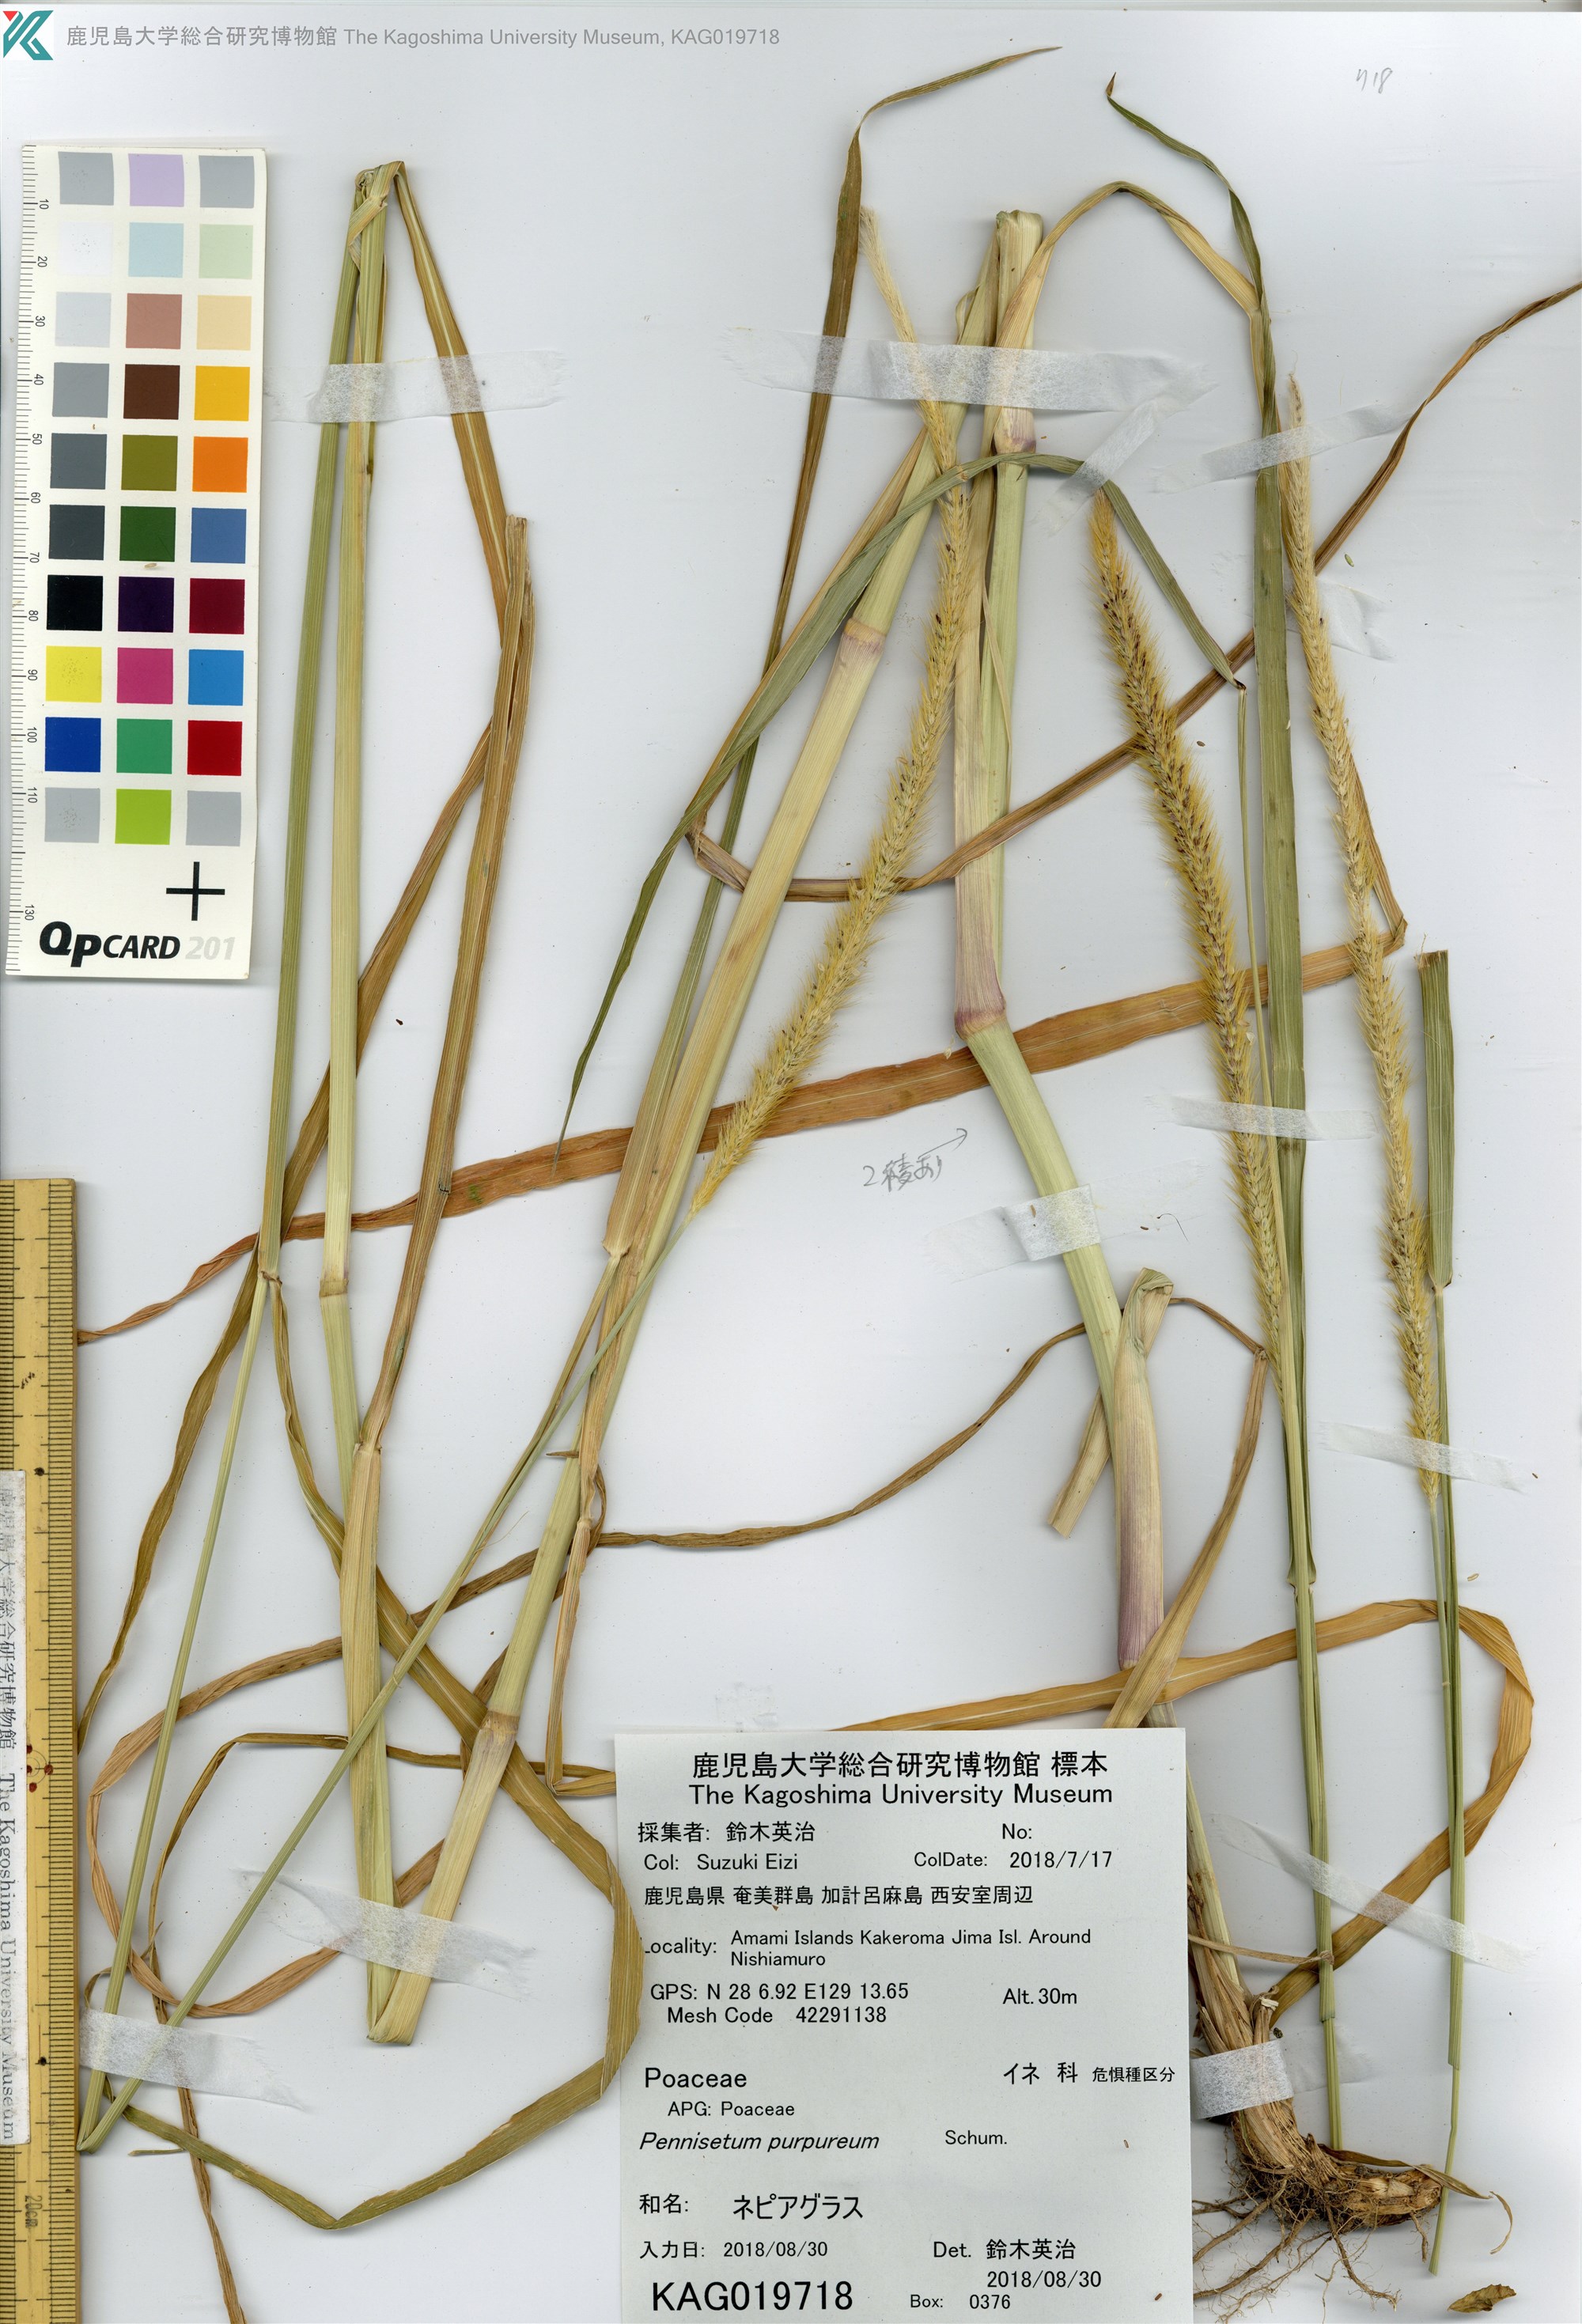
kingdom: Plantae
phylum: Tracheophyta
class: Liliopsida
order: Poales
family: Poaceae
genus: Cenchrus
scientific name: Cenchrus purpureus
